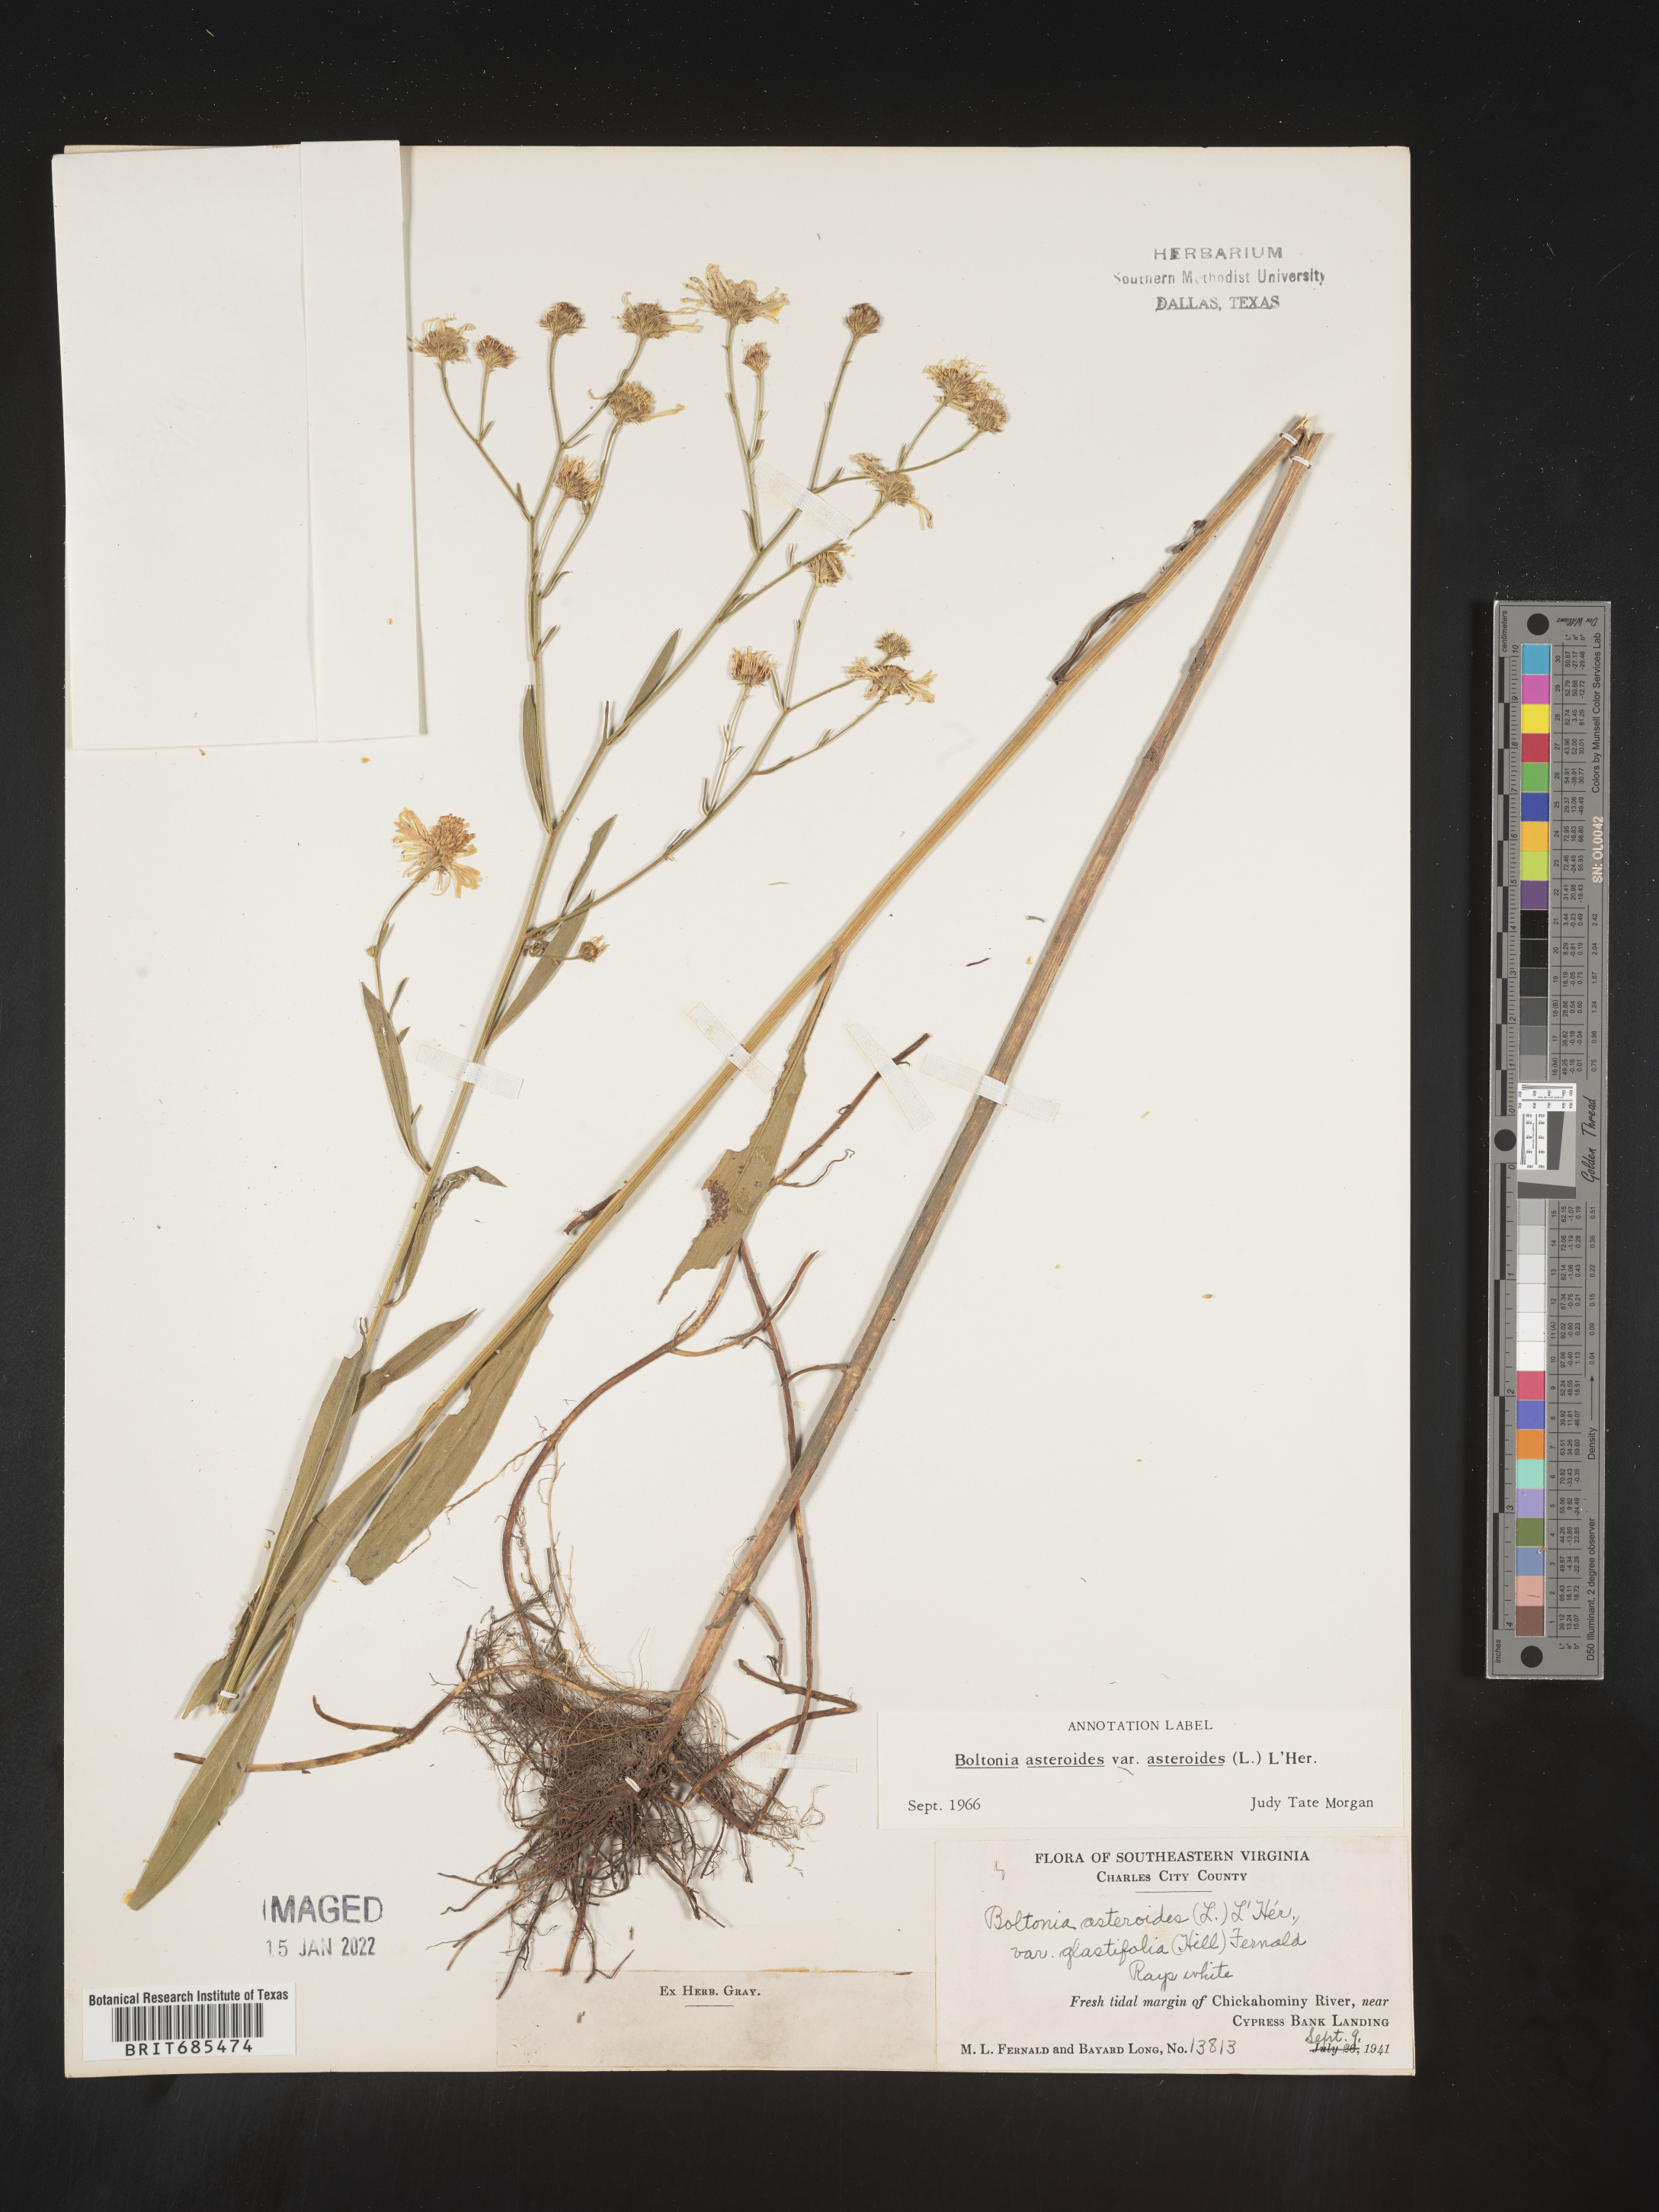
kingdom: Plantae
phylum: Tracheophyta
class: Magnoliopsida
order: Asterales
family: Asteraceae
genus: Boltonia
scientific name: Boltonia asteroides
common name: False chamomile
